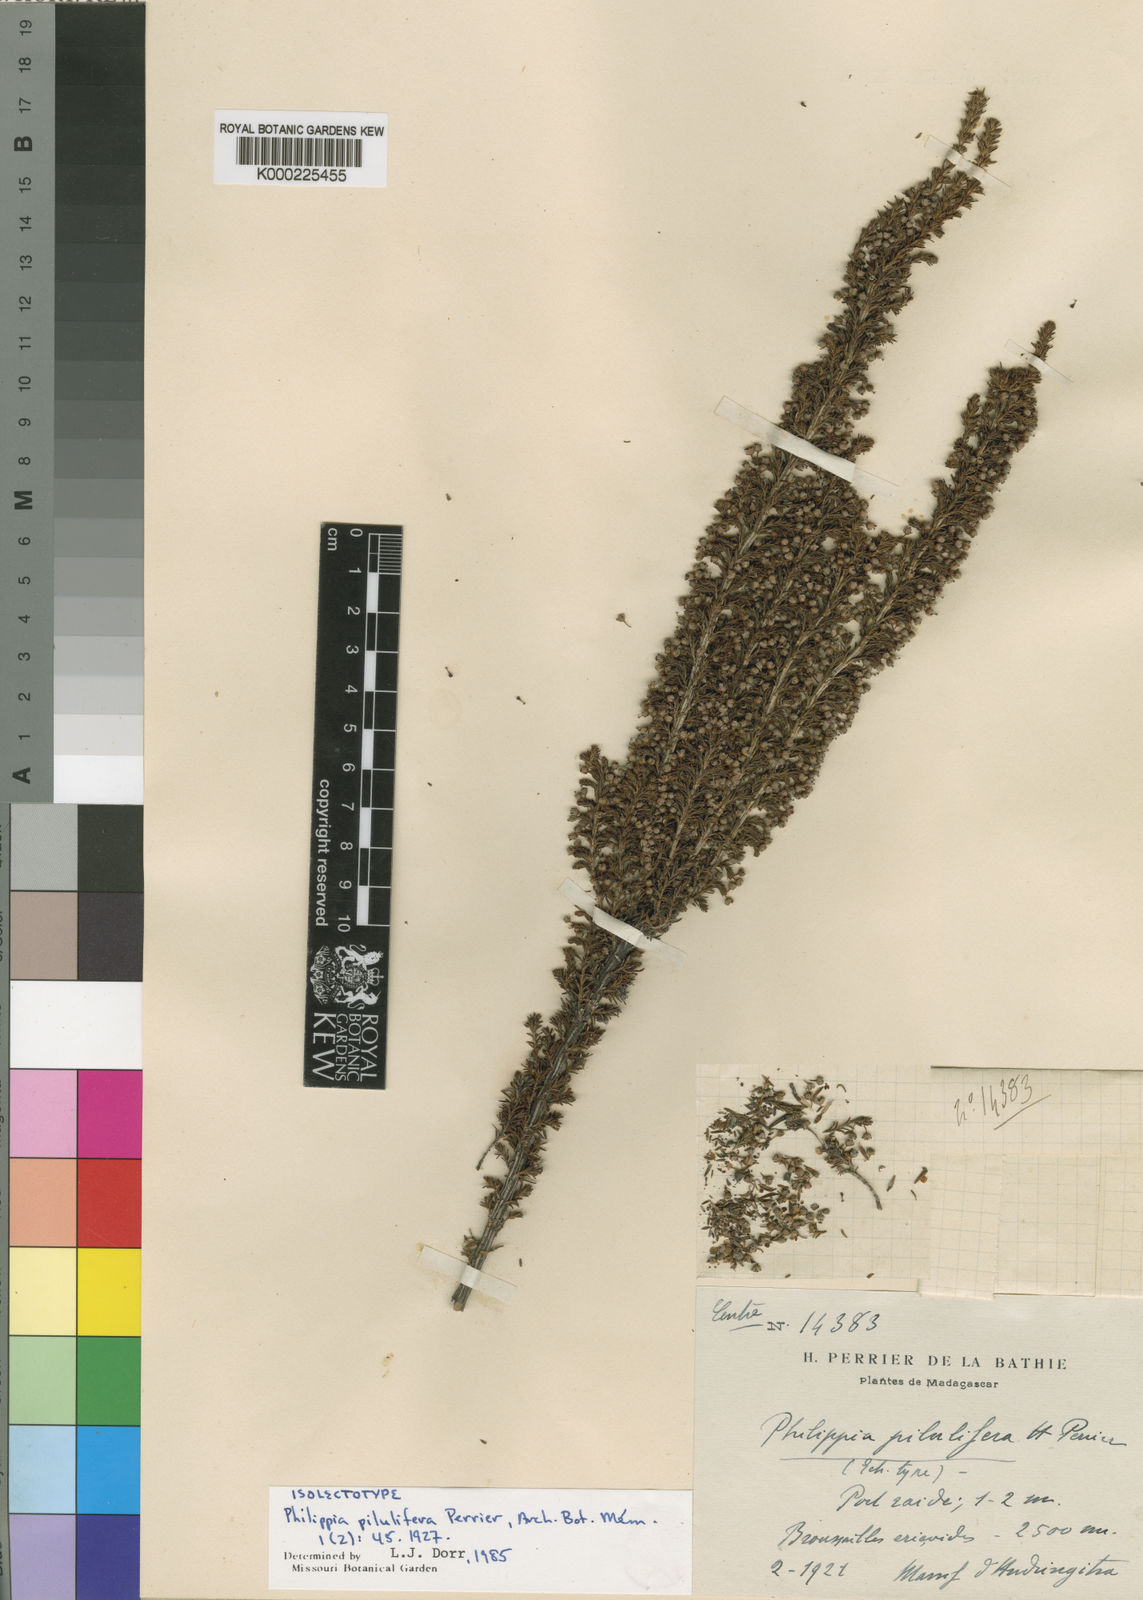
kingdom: Plantae
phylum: Tracheophyta
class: Magnoliopsida
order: Ericales
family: Ericaceae
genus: Erica
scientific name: Erica wangfatiana
